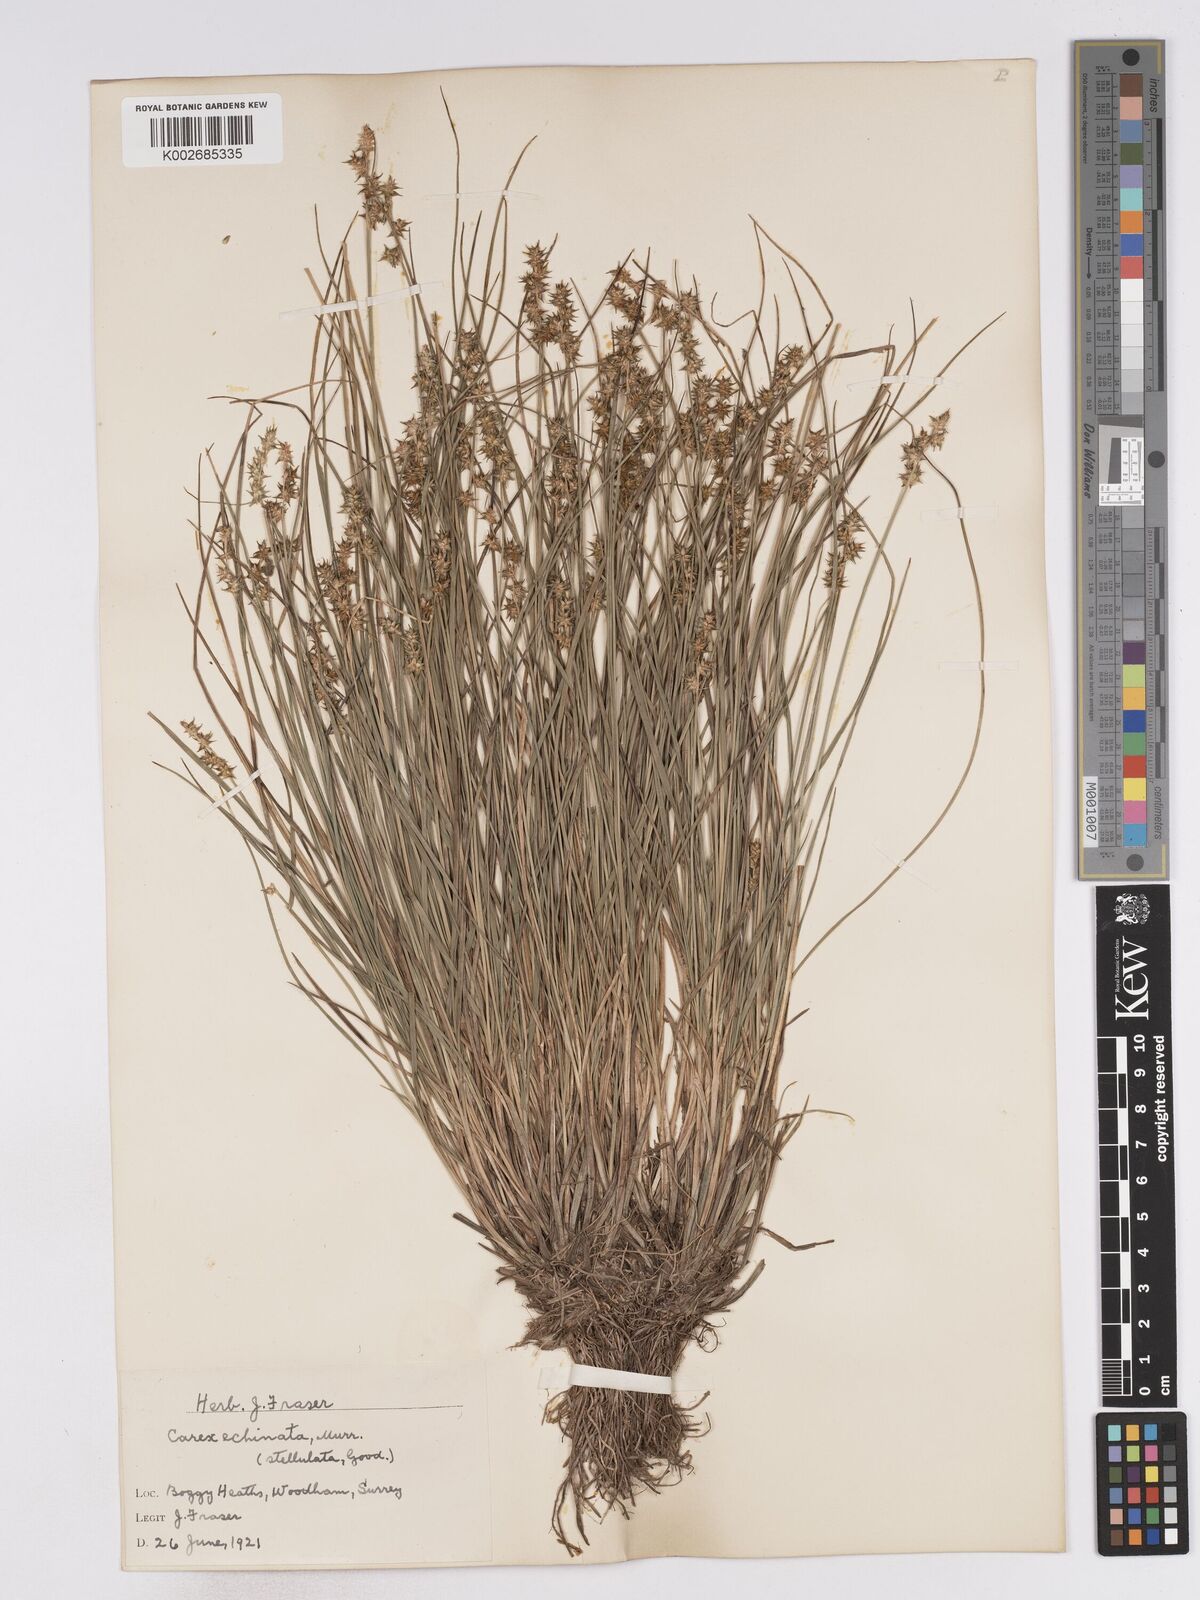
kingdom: Plantae
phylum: Tracheophyta
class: Liliopsida
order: Poales
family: Cyperaceae
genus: Carex
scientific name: Carex echinata
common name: Star sedge
